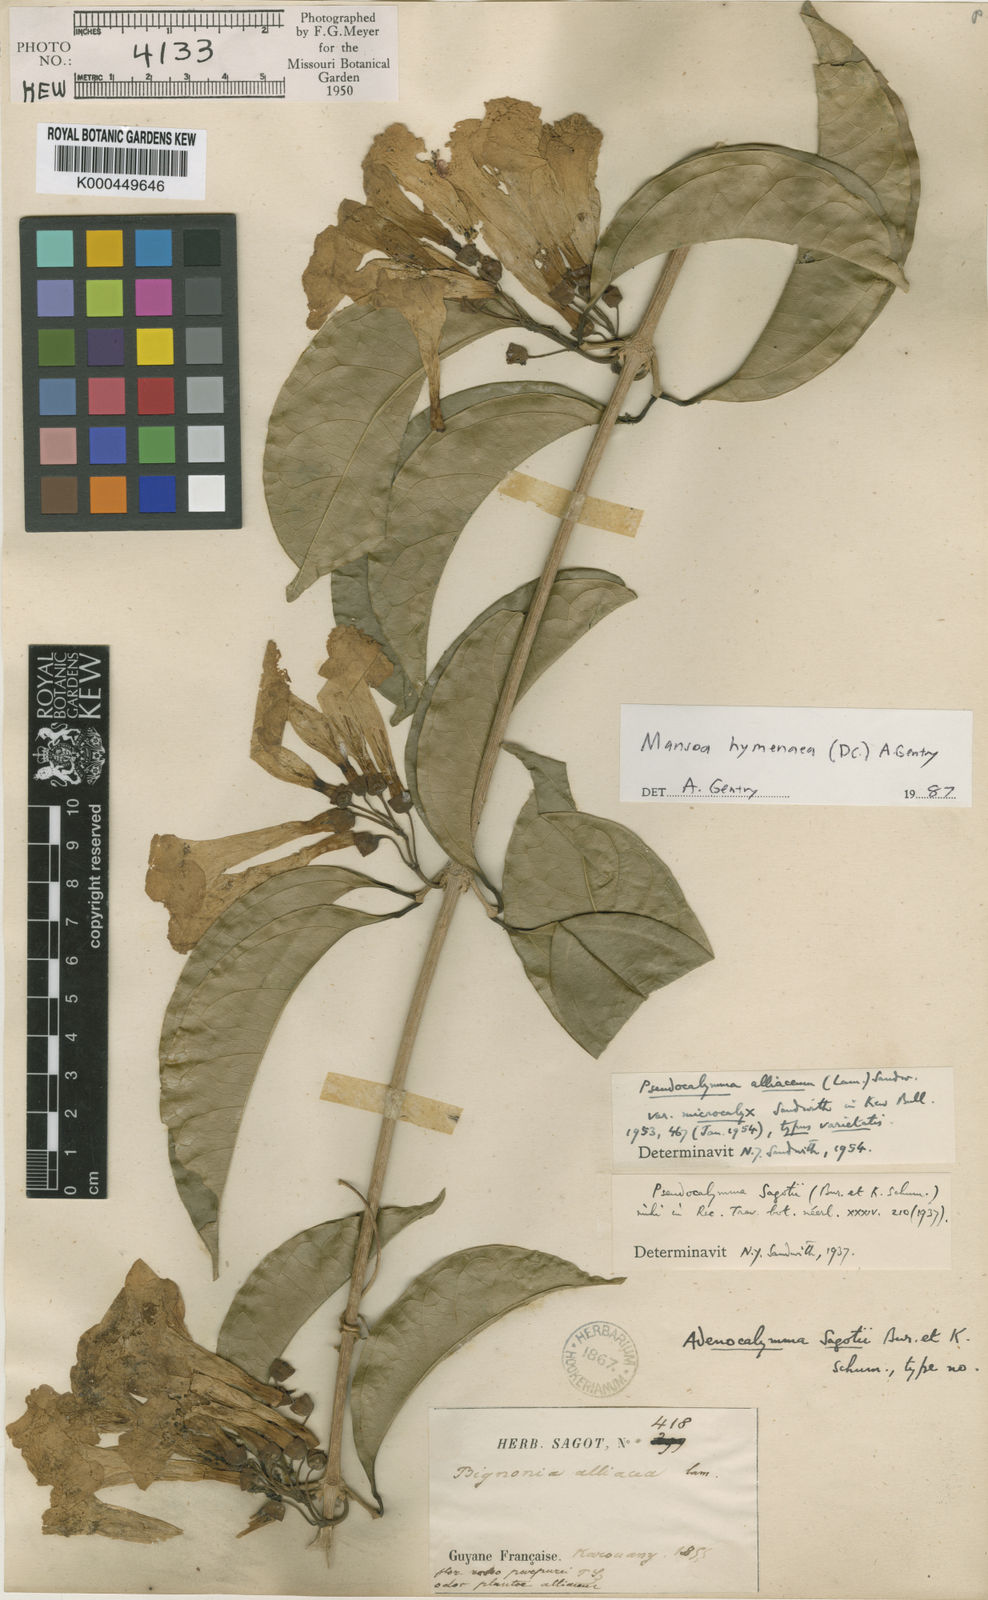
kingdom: Plantae
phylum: Tracheophyta
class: Magnoliopsida
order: Lamiales
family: Bignoniaceae
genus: Mansoa
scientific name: Mansoa hymenaea
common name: Membranous garlic vine
